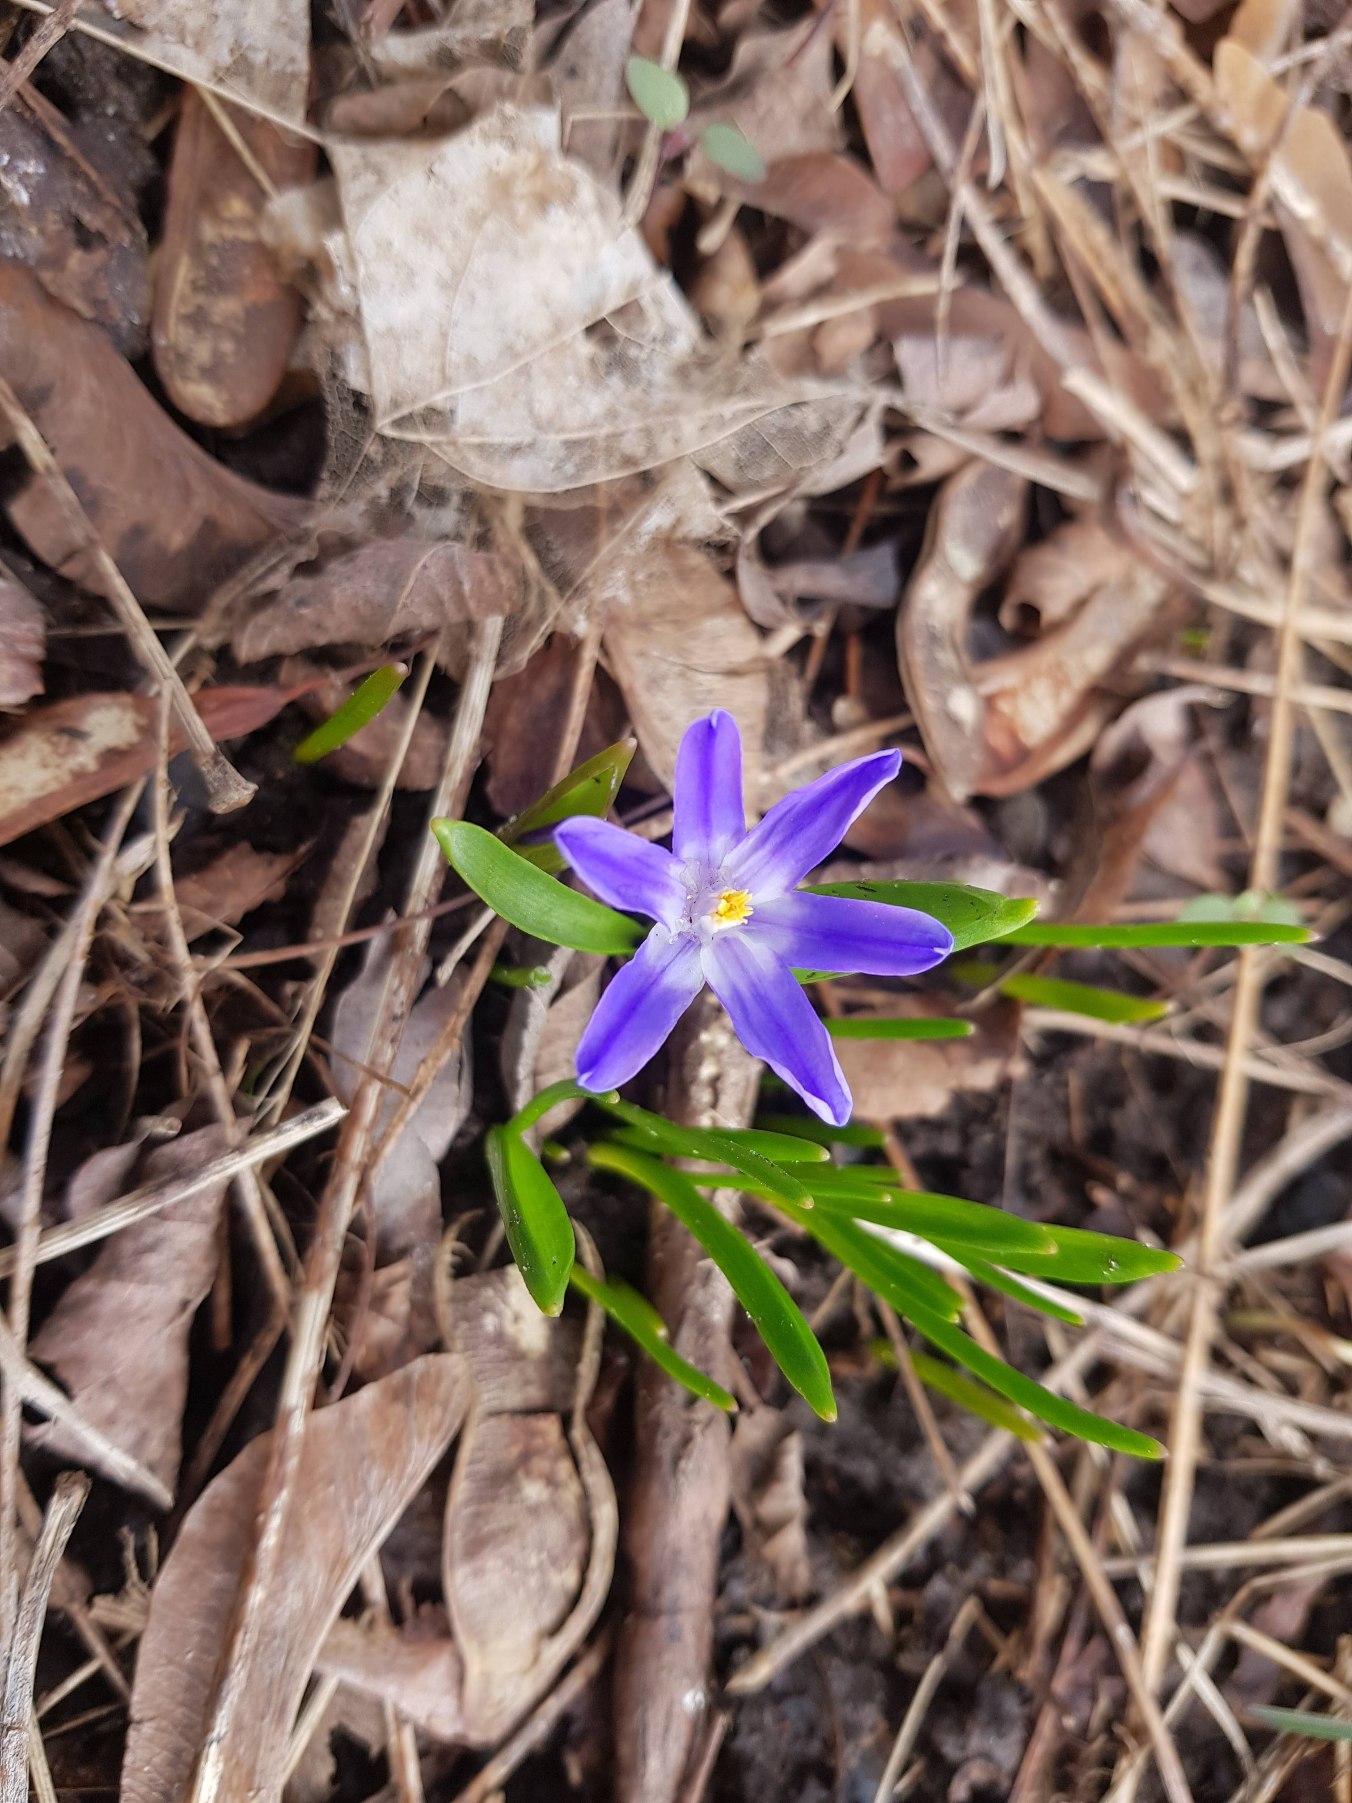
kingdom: Plantae
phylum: Tracheophyta
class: Liliopsida
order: Asparagales
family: Asparagaceae
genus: Scilla
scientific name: Scilla luciliae
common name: Stor snepryd
